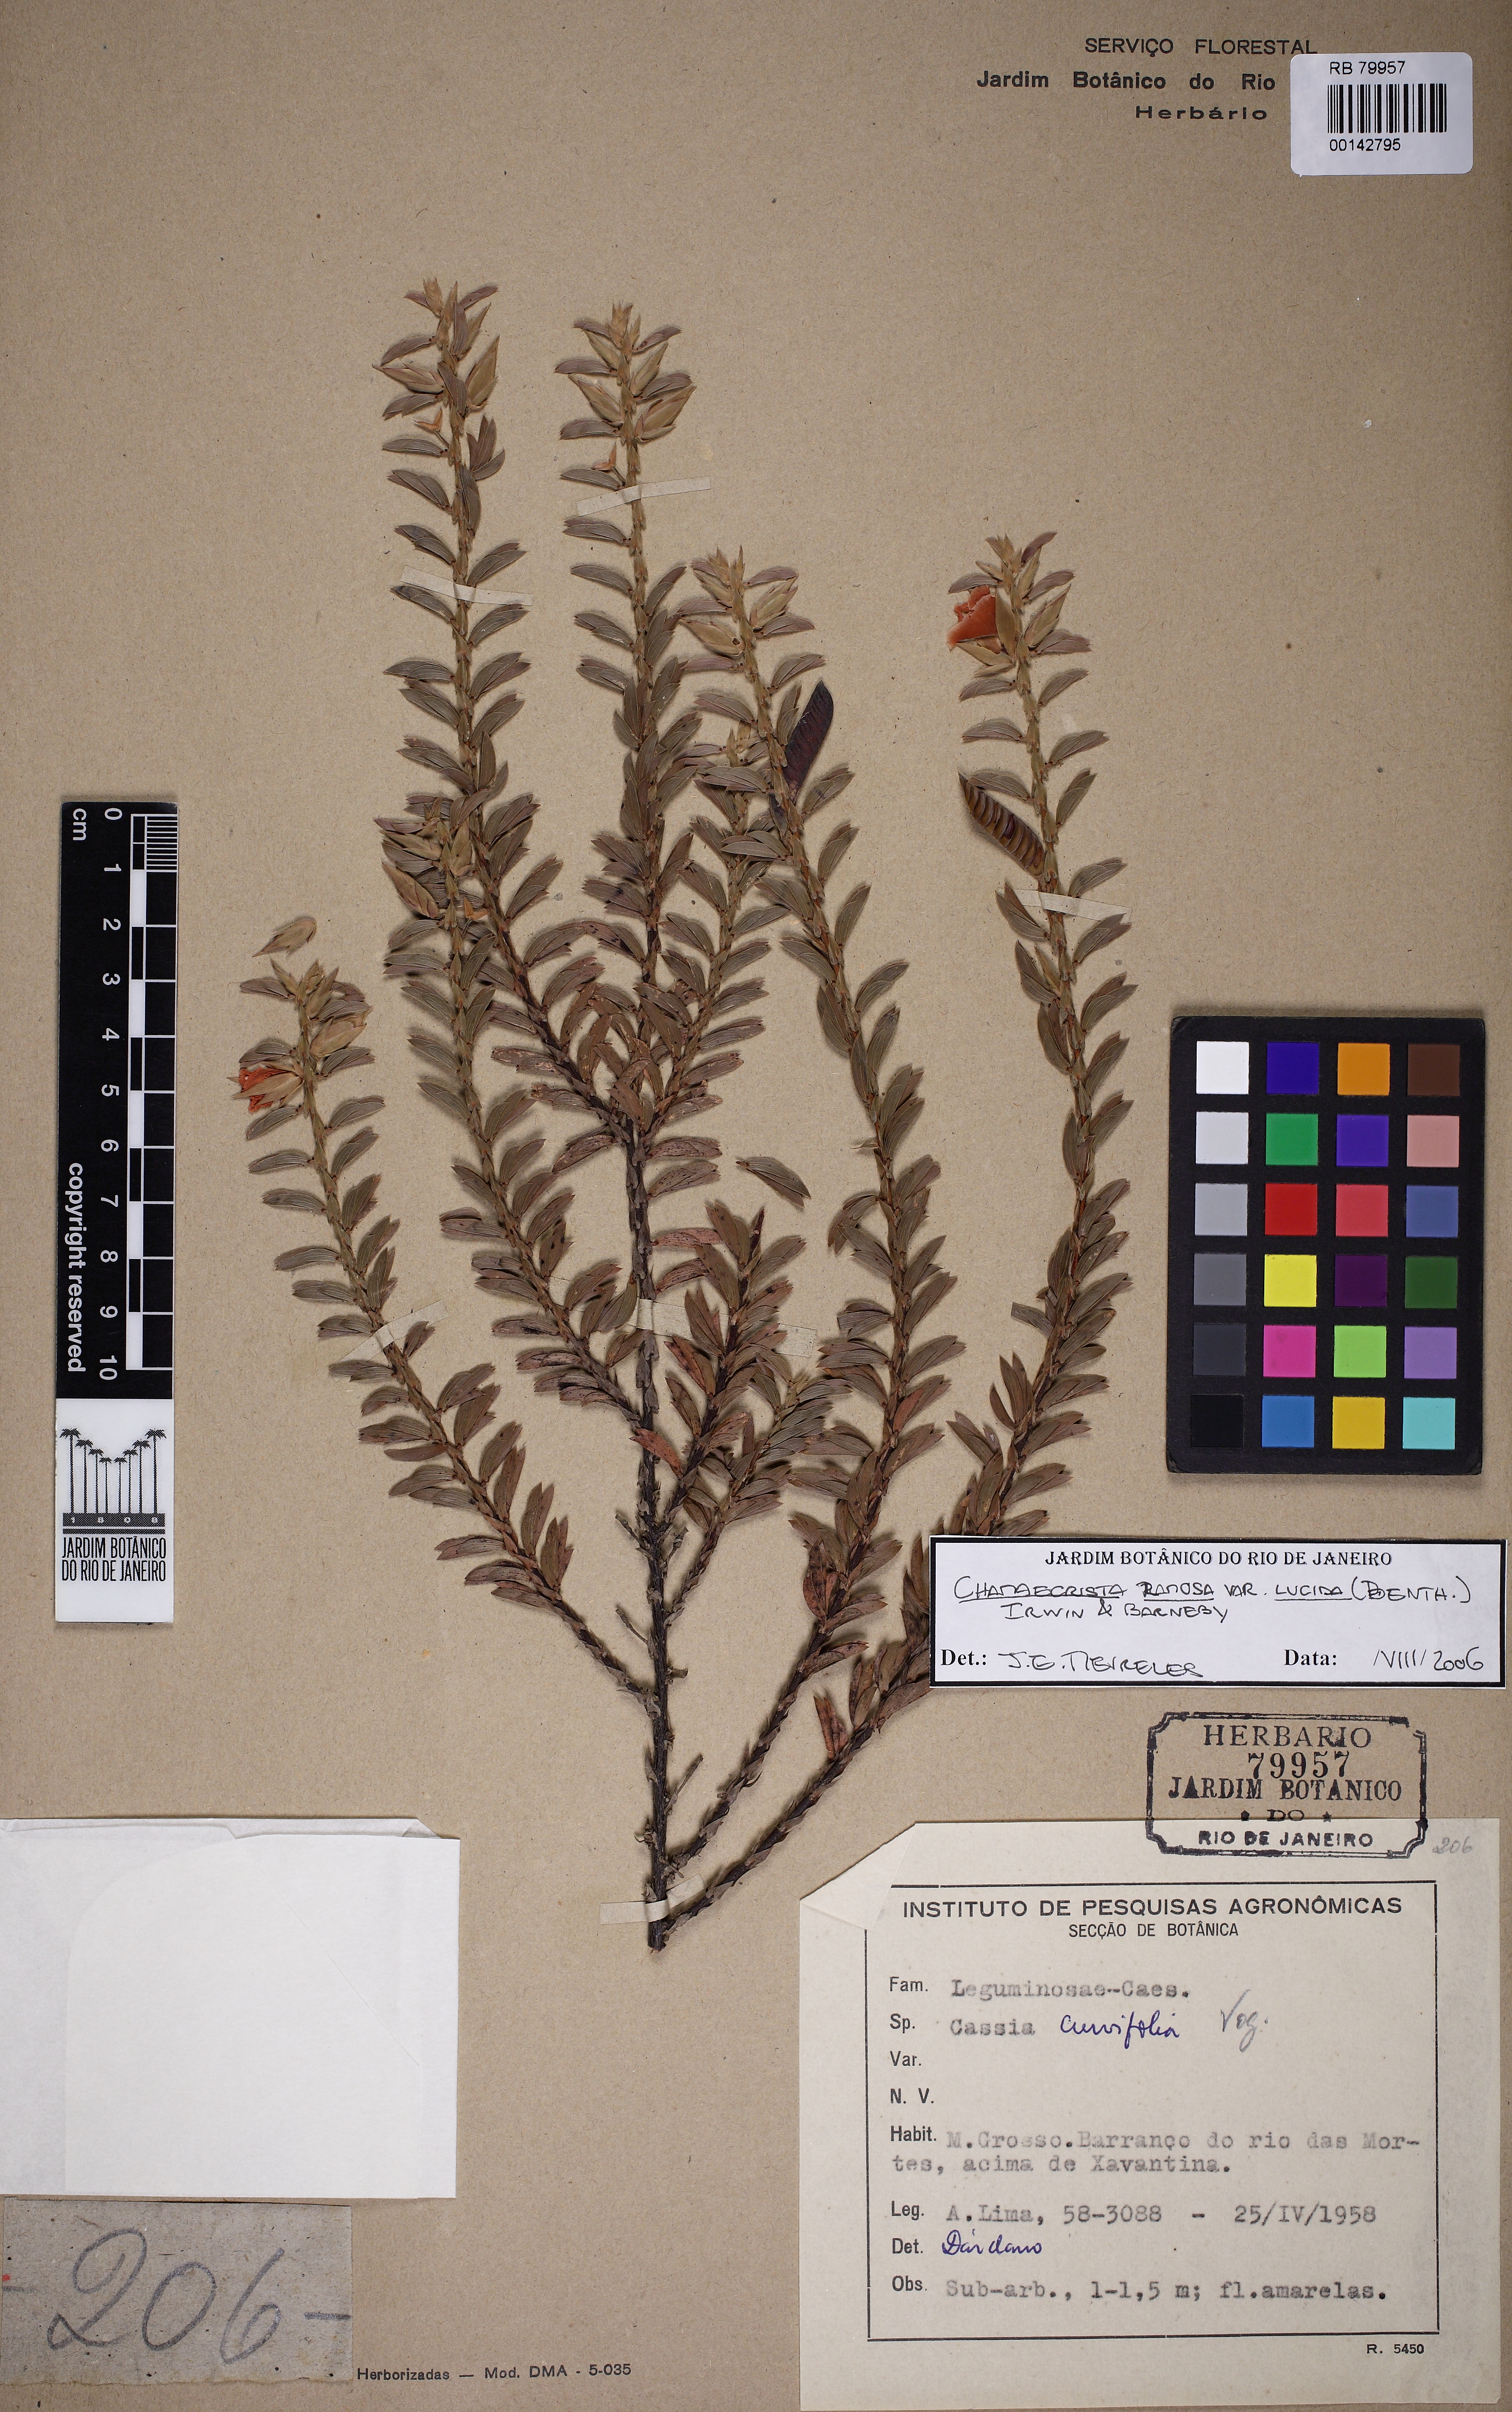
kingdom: Plantae
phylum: Tracheophyta
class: Magnoliopsida
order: Fabales
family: Fabaceae
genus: Chamaecrista
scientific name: Chamaecrista ramosa
